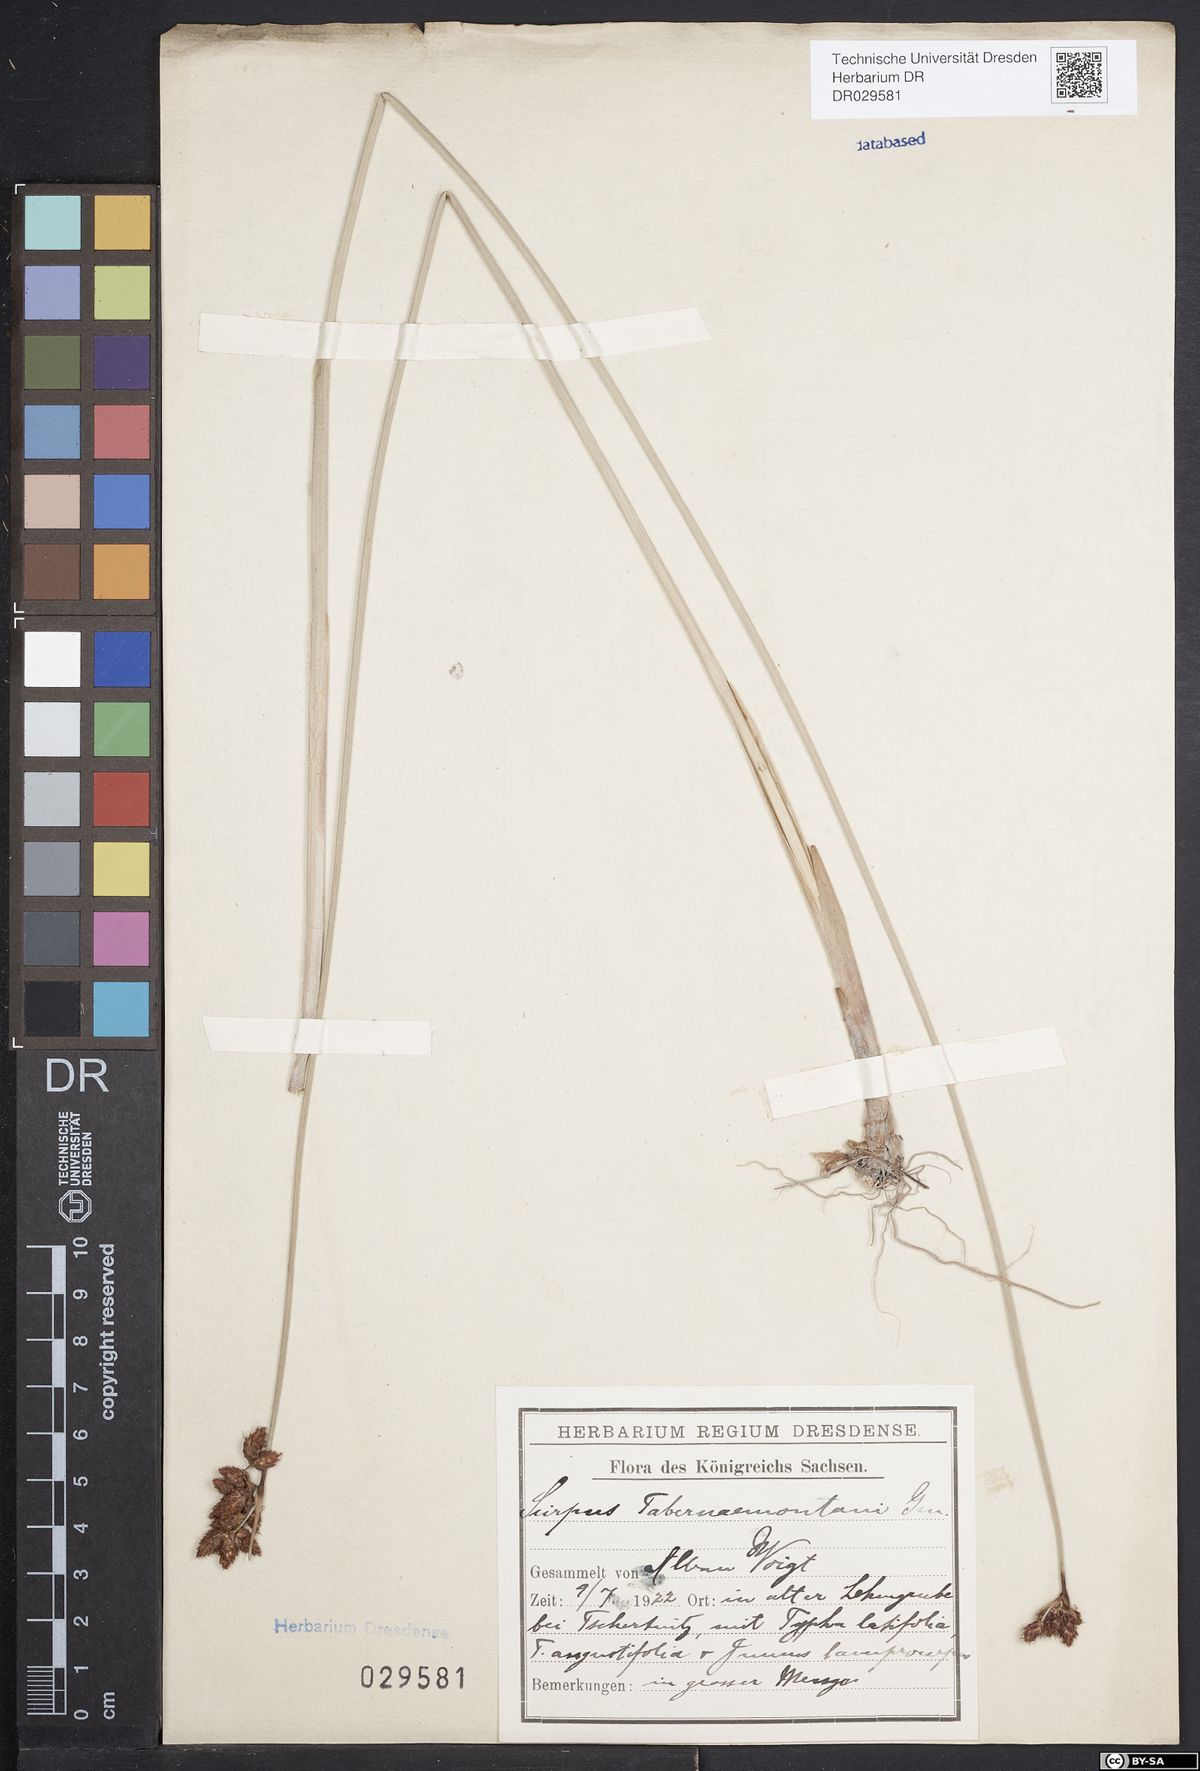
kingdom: Plantae
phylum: Tracheophyta
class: Liliopsida
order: Poales
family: Cyperaceae
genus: Schoenoplectus
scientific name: Schoenoplectus tabernaemontani
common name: Grey club-rush
